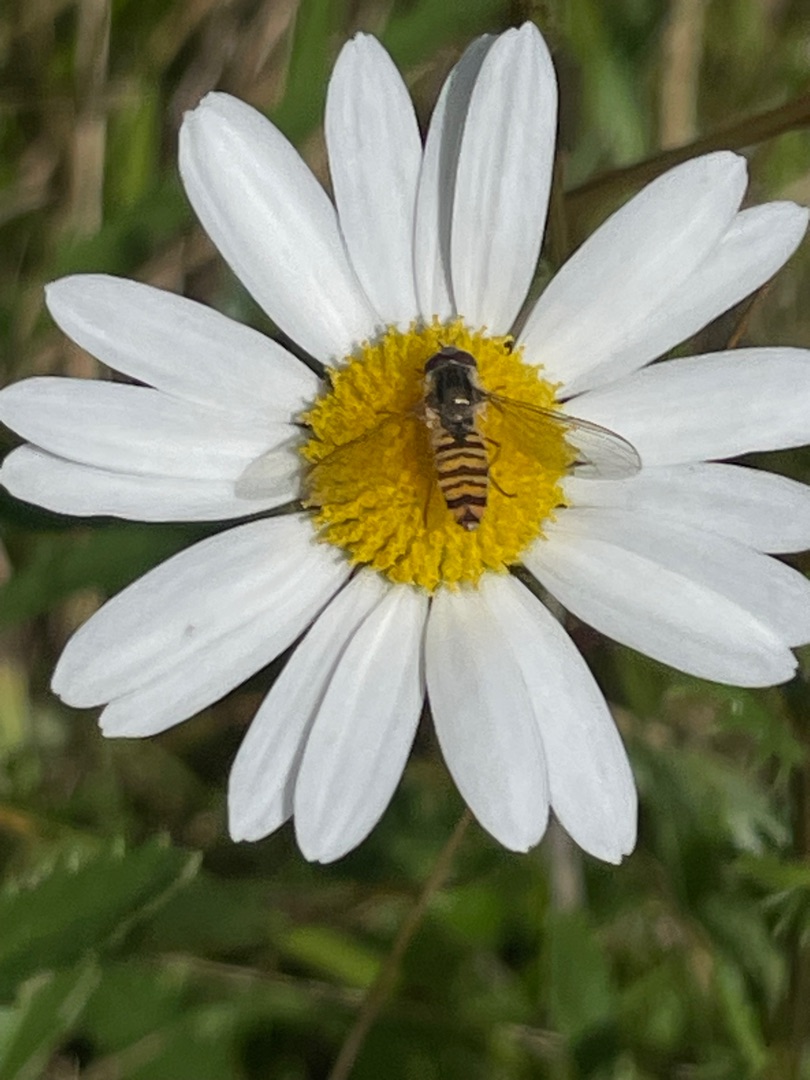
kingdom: Animalia
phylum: Arthropoda
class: Insecta
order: Diptera
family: Syrphidae
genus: Episyrphus
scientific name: Episyrphus balteatus
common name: Dobbeltbåndet svirreflue
